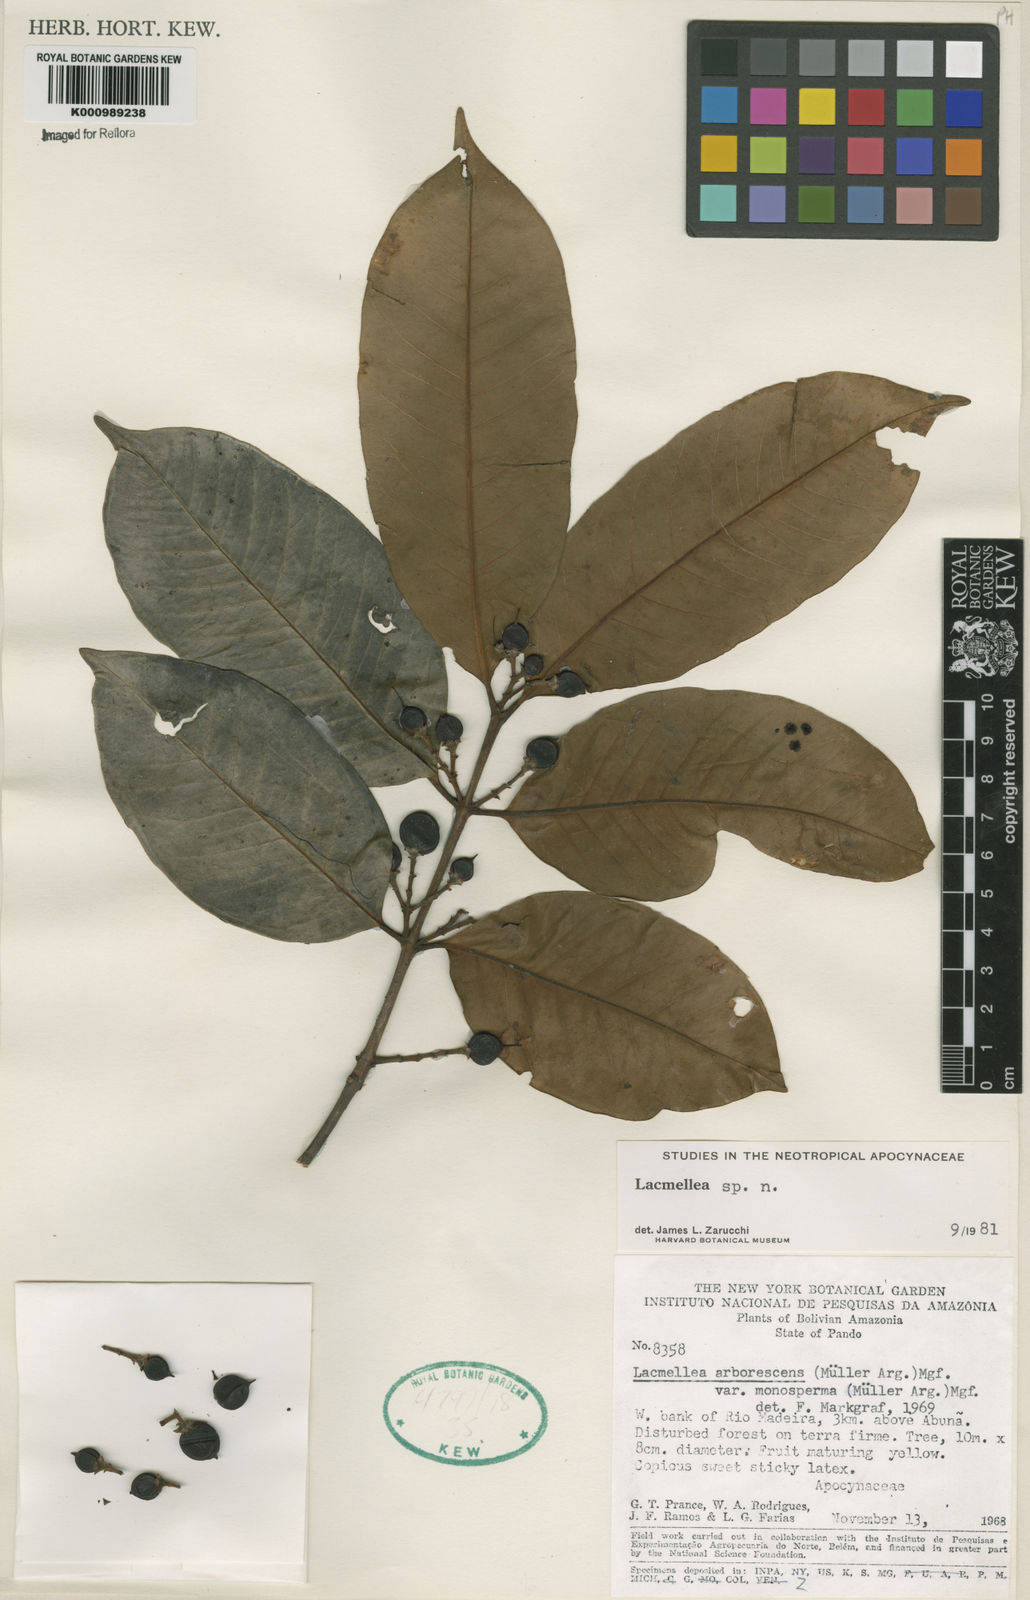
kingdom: Plantae
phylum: Tracheophyta
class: Magnoliopsida
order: Gentianales
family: Apocynaceae
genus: Lacmellea
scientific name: Lacmellea
